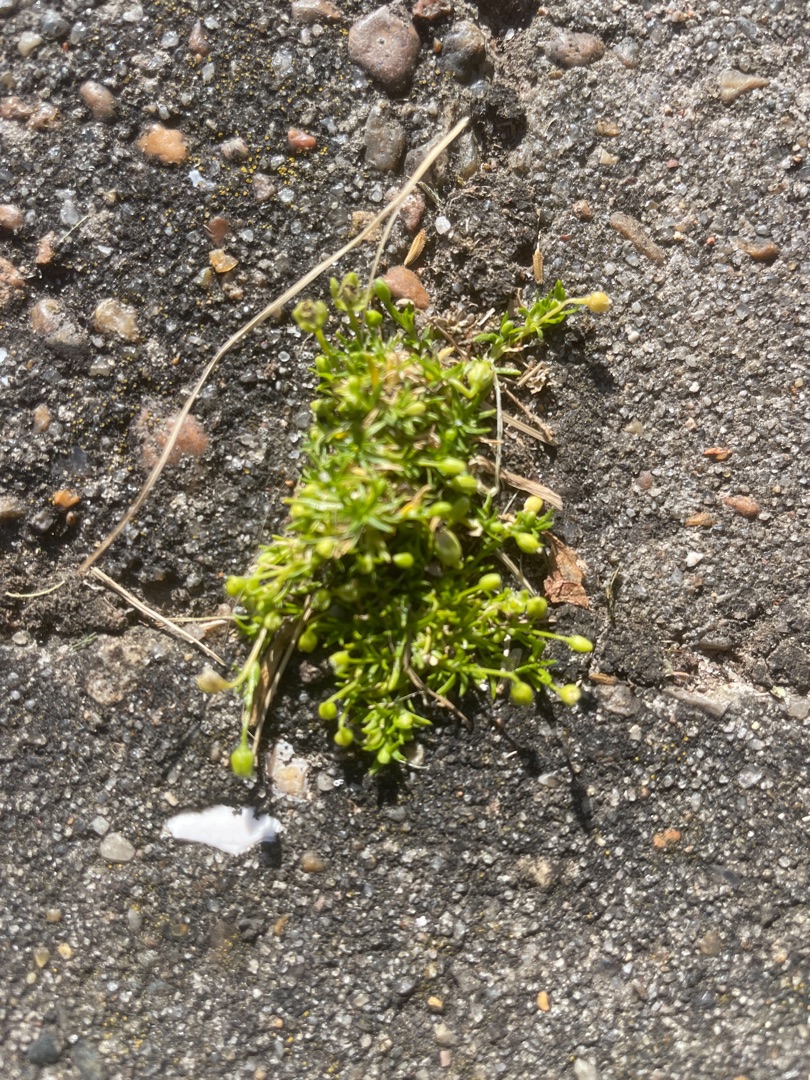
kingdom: Plantae
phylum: Tracheophyta
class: Magnoliopsida
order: Caryophyllales
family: Caryophyllaceae
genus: Sagina
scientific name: Sagina procumbens
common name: Almindelig firling
